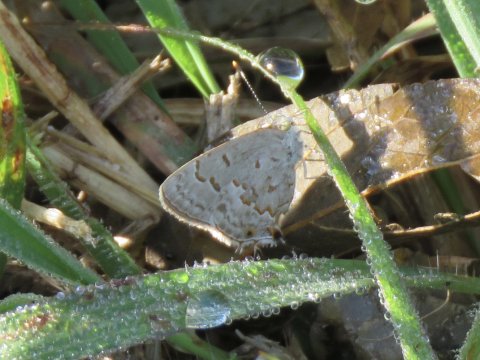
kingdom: Animalia
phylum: Arthropoda
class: Insecta
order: Lepidoptera
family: Lycaenidae
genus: Ministrymon
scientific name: Ministrymon clytie
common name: Clytie Ministreak
